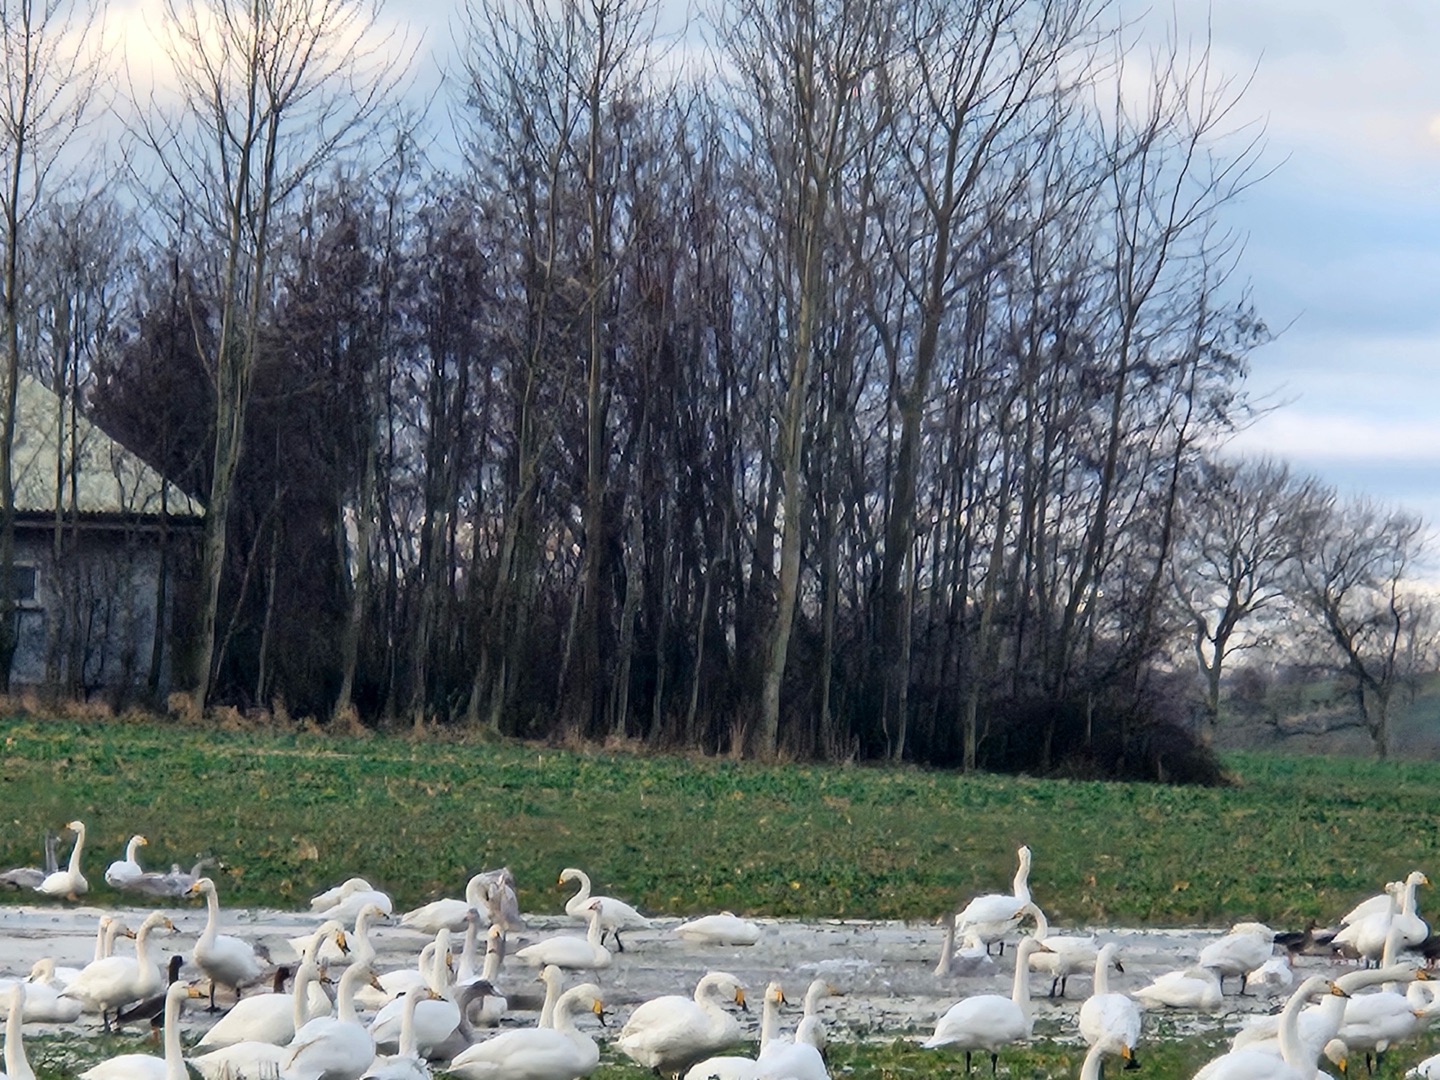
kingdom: Animalia
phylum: Chordata
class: Aves
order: Anseriformes
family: Anatidae
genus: Cygnus
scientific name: Cygnus cygnus
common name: Sangsvane
